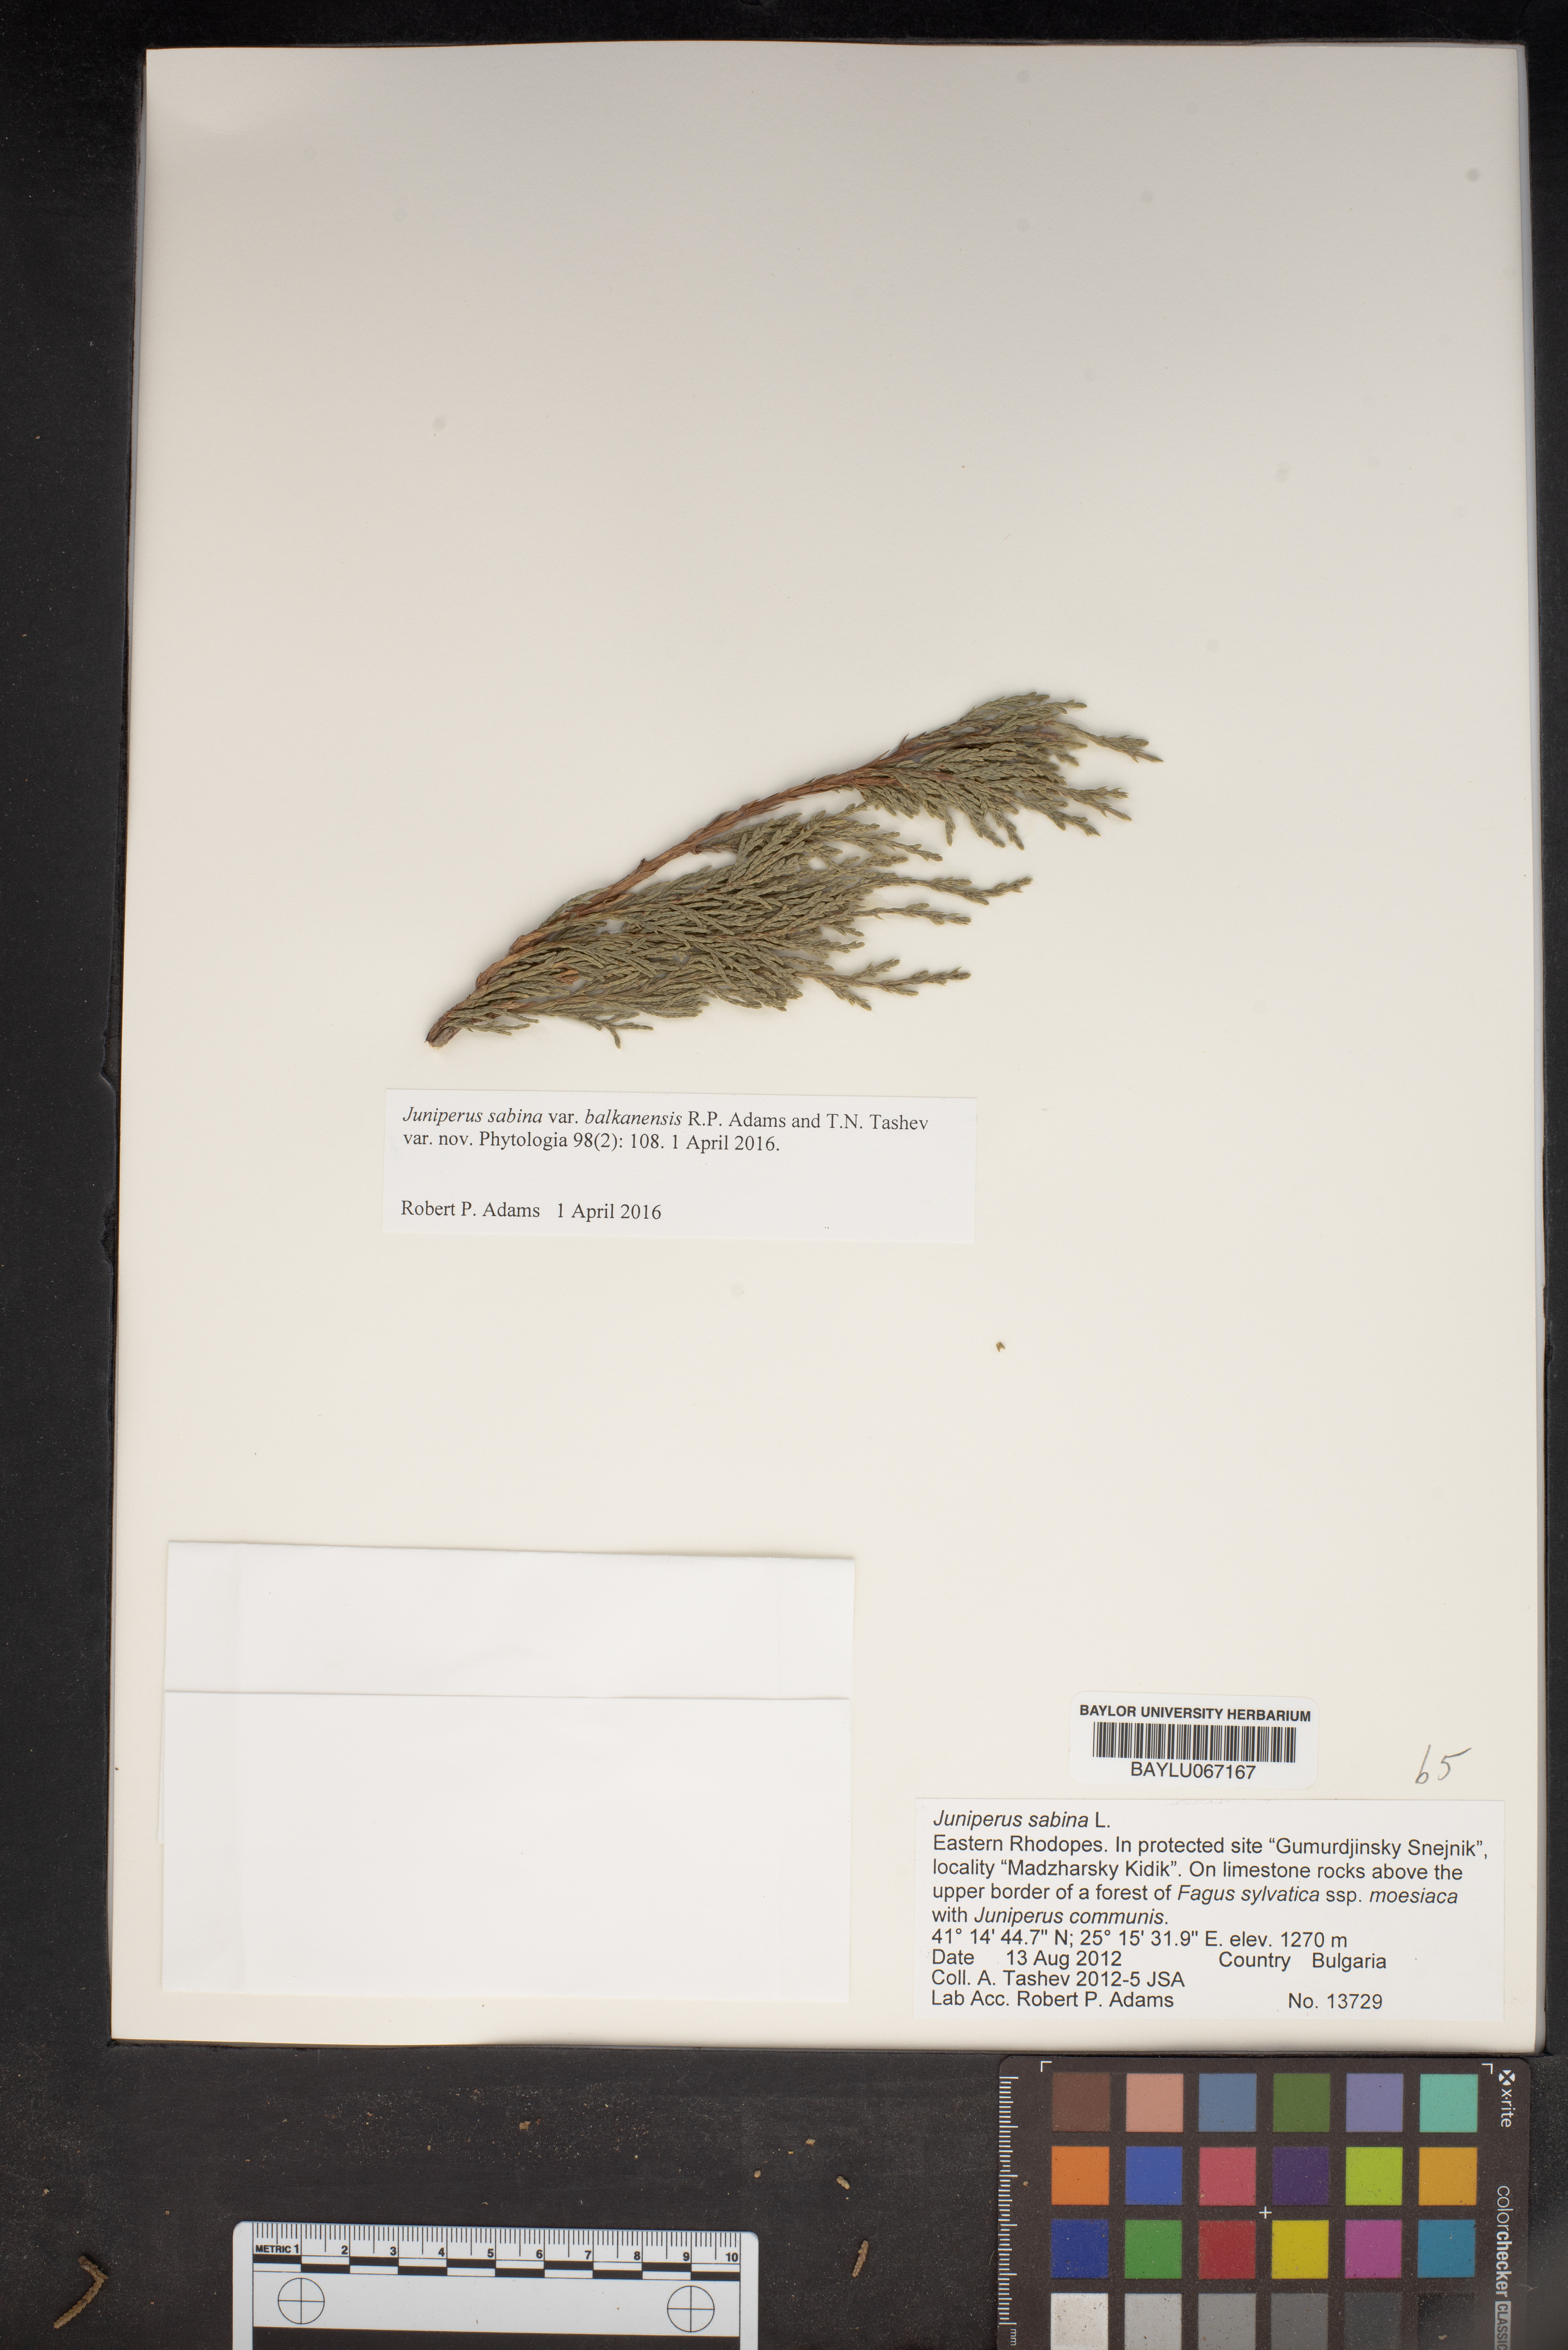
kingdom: Plantae
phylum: Tracheophyta
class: Pinopsida
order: Pinales
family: Cupressaceae
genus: Juniperus
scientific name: Juniperus sabina
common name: Savin
